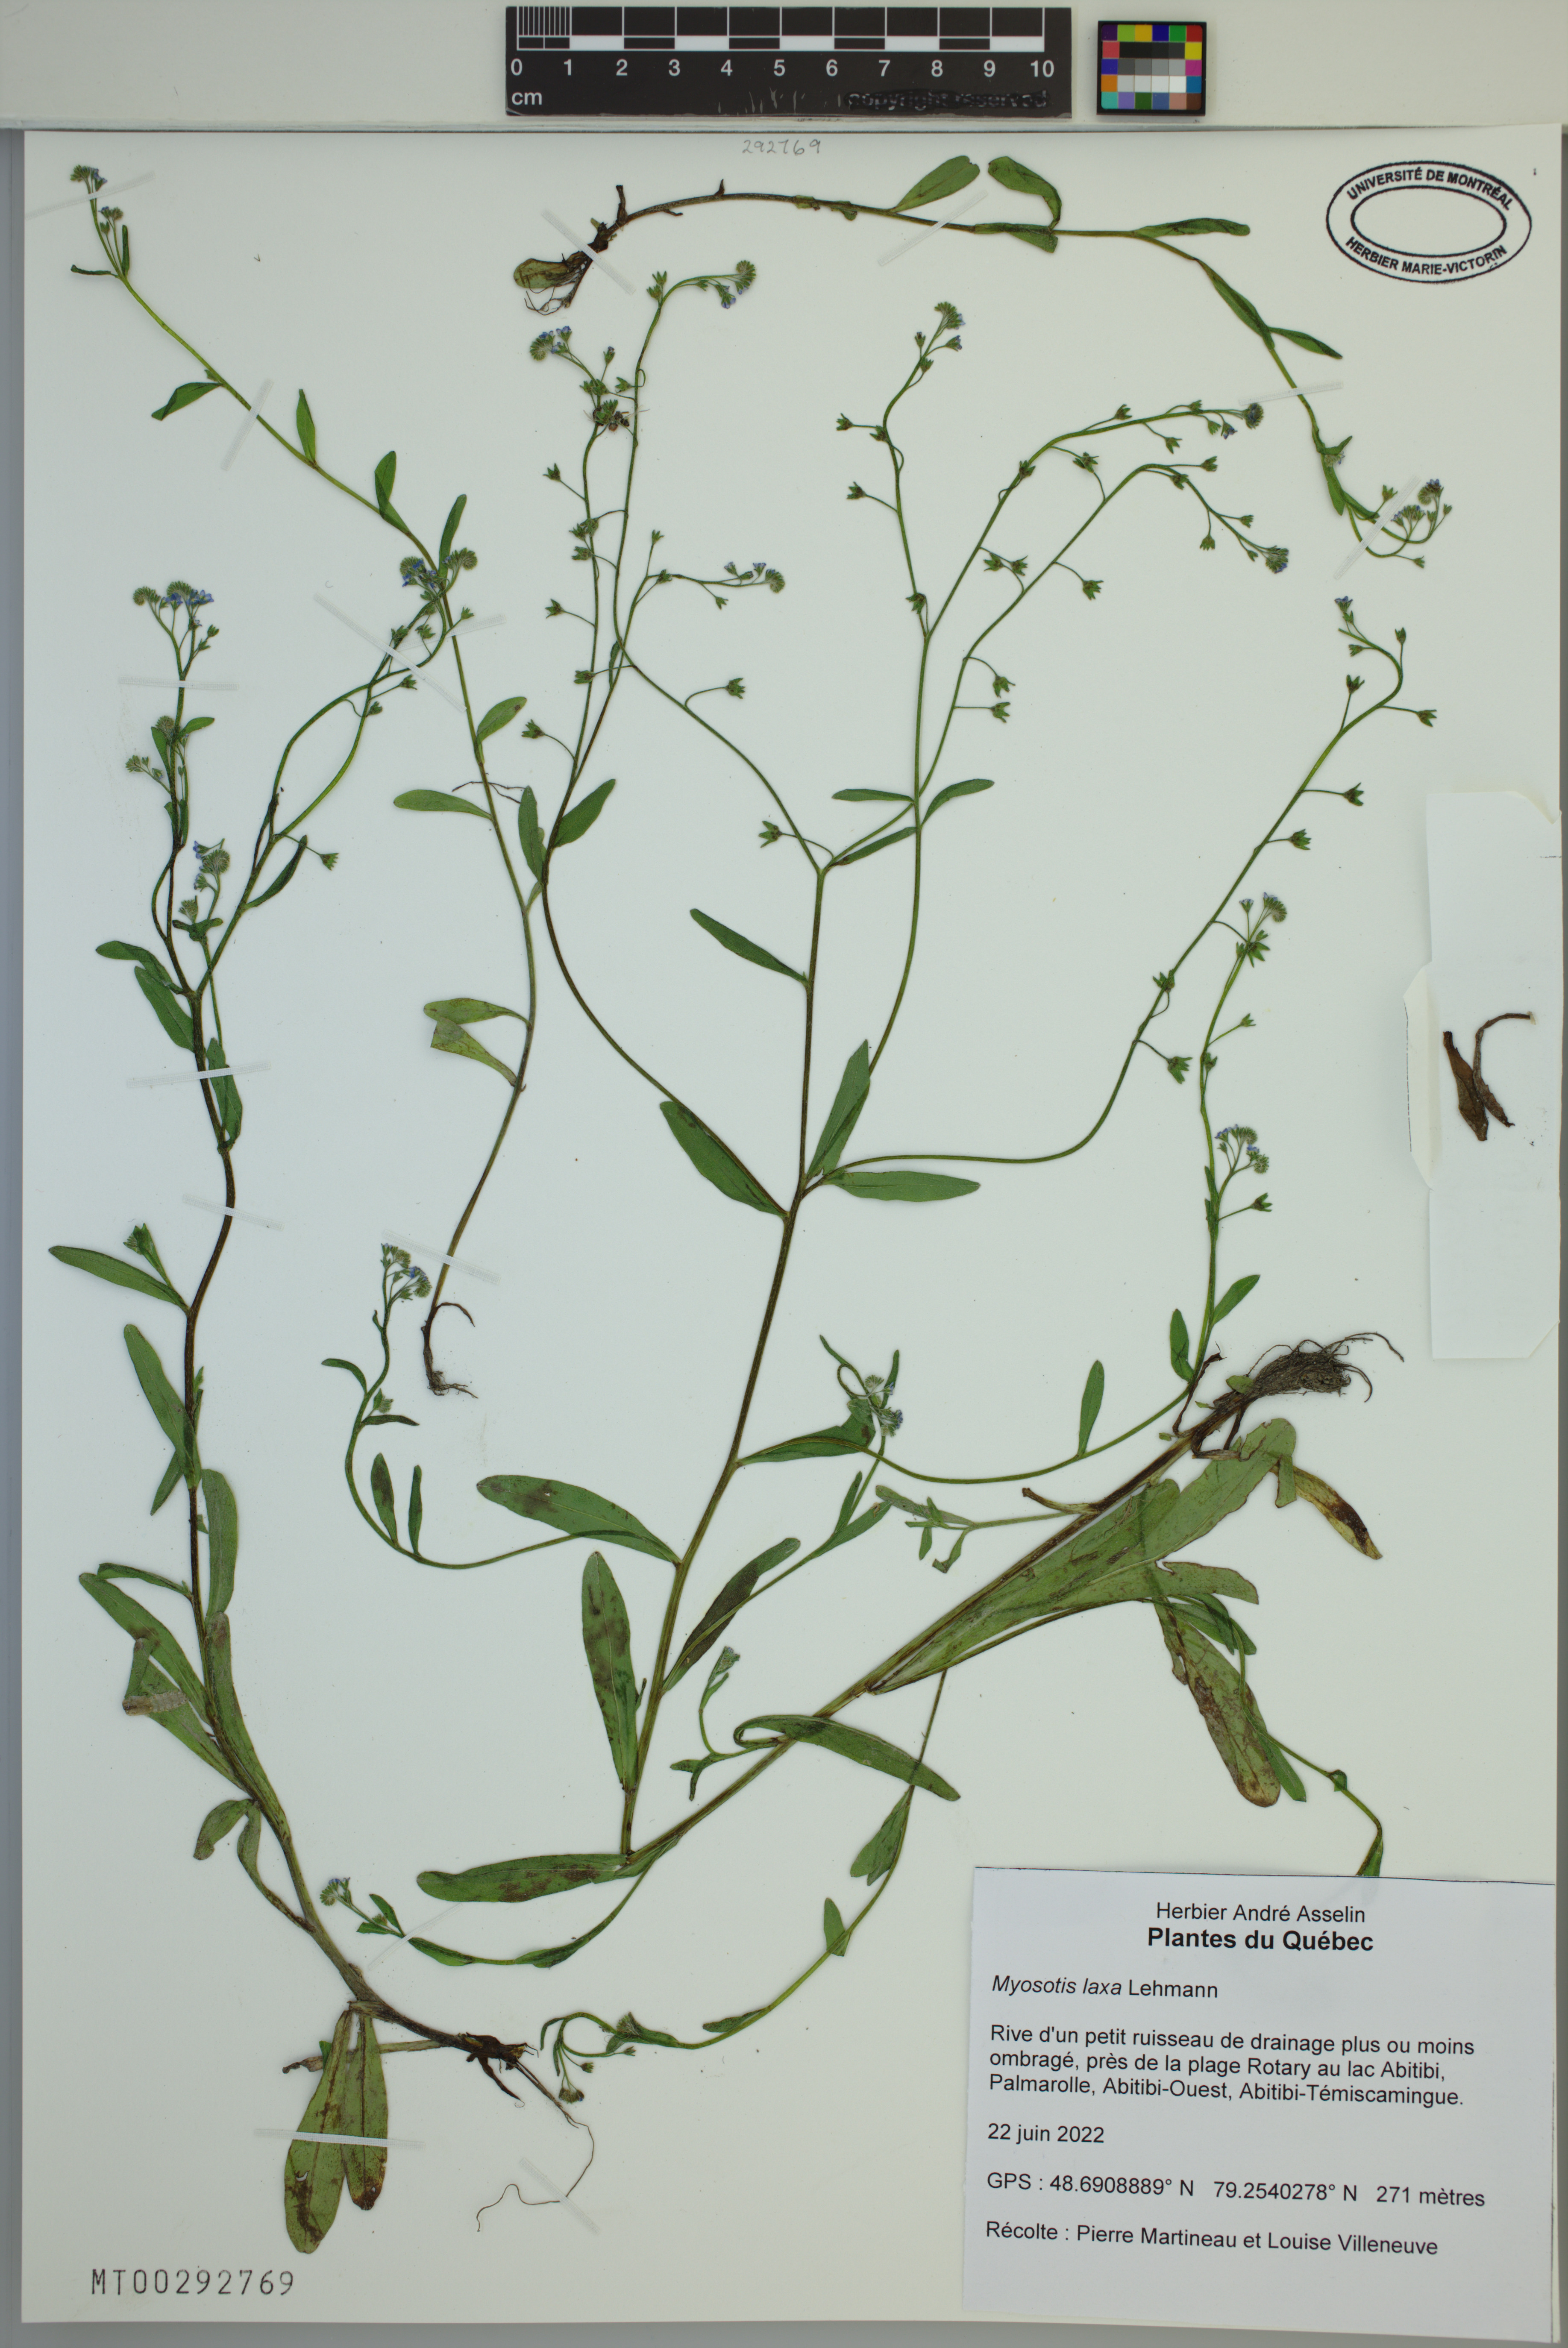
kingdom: Plantae
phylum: Tracheophyta
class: Magnoliopsida
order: Boraginales
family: Boraginaceae
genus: Myosotis
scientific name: Myosotis laxa
